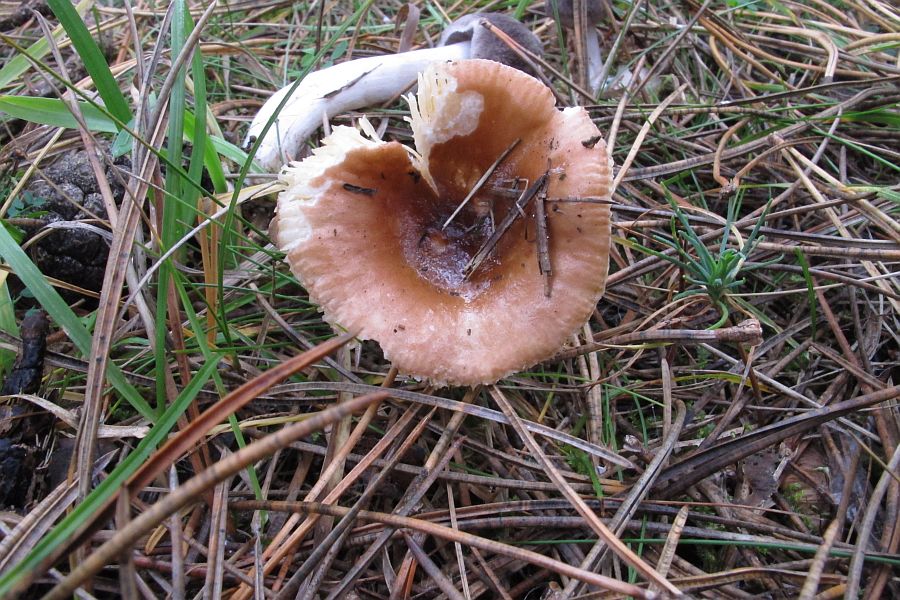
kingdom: Fungi
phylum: Basidiomycota
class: Agaricomycetes
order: Russulales
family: Russulaceae
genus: Russula
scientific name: Russula cessans
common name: fyrre-skørhat
